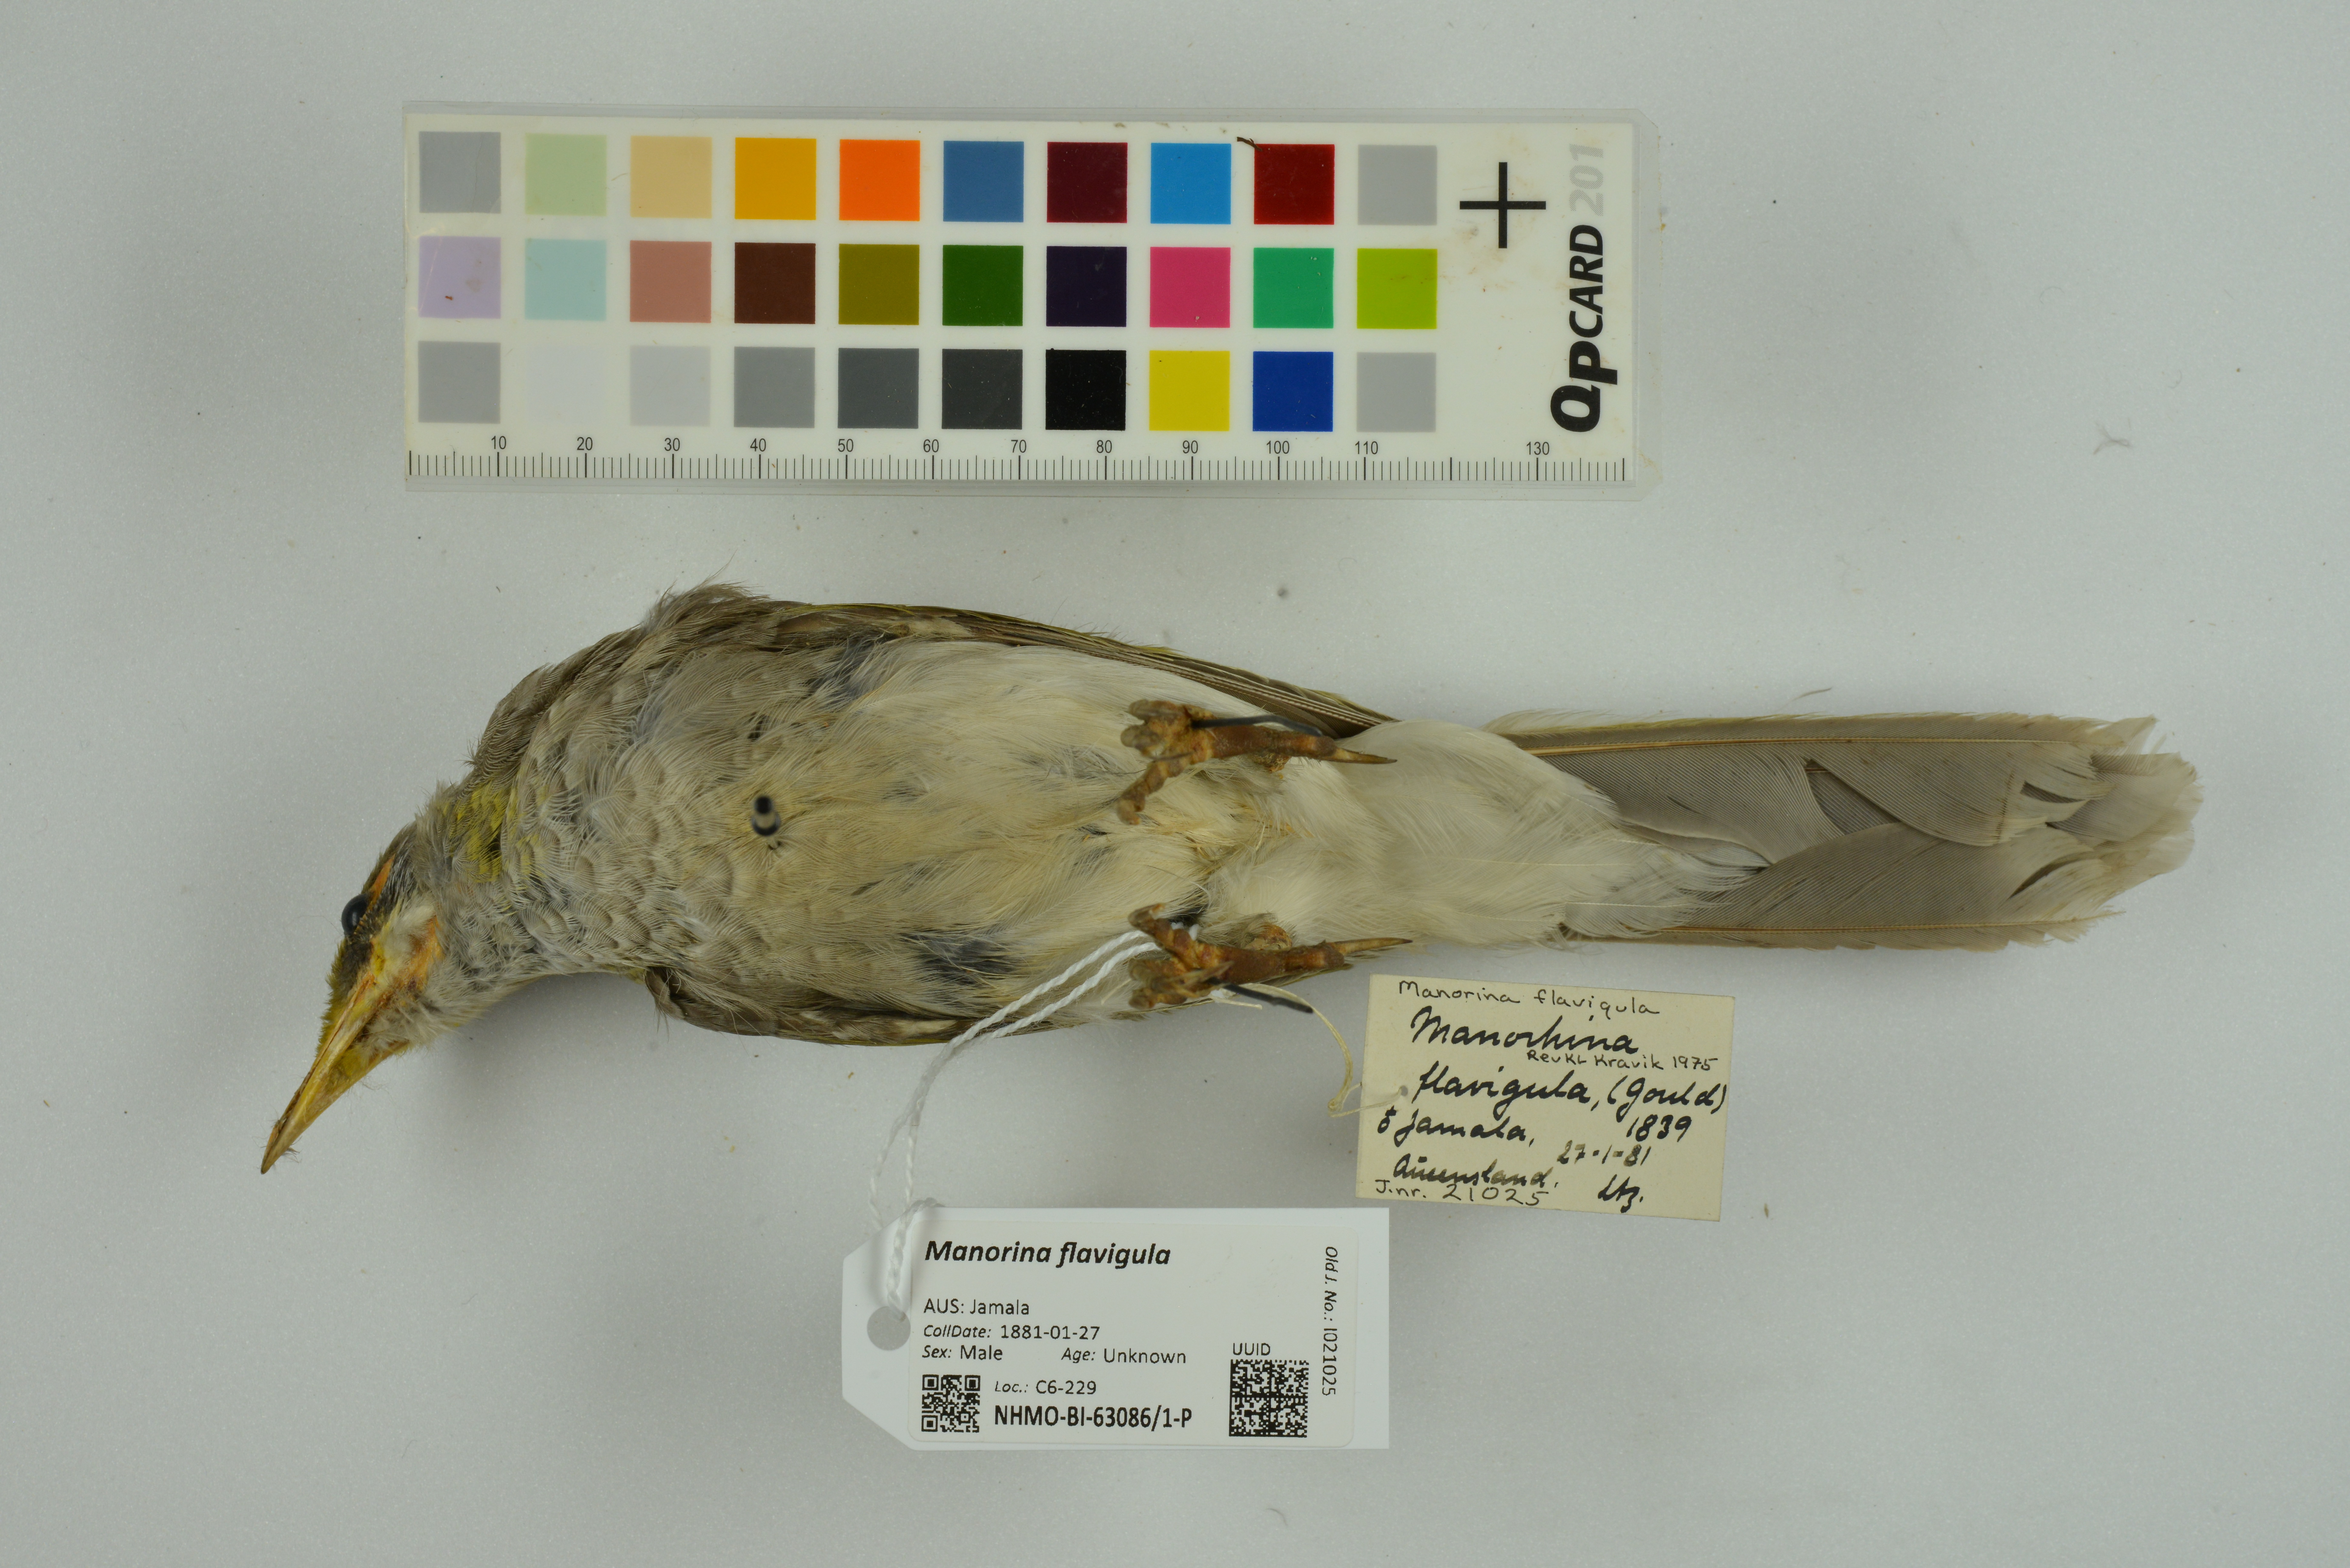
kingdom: Animalia
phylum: Chordata
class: Aves
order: Passeriformes
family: Meliphagidae
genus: Manorina
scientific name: Manorina flavigula
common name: Yellow-throated miner
